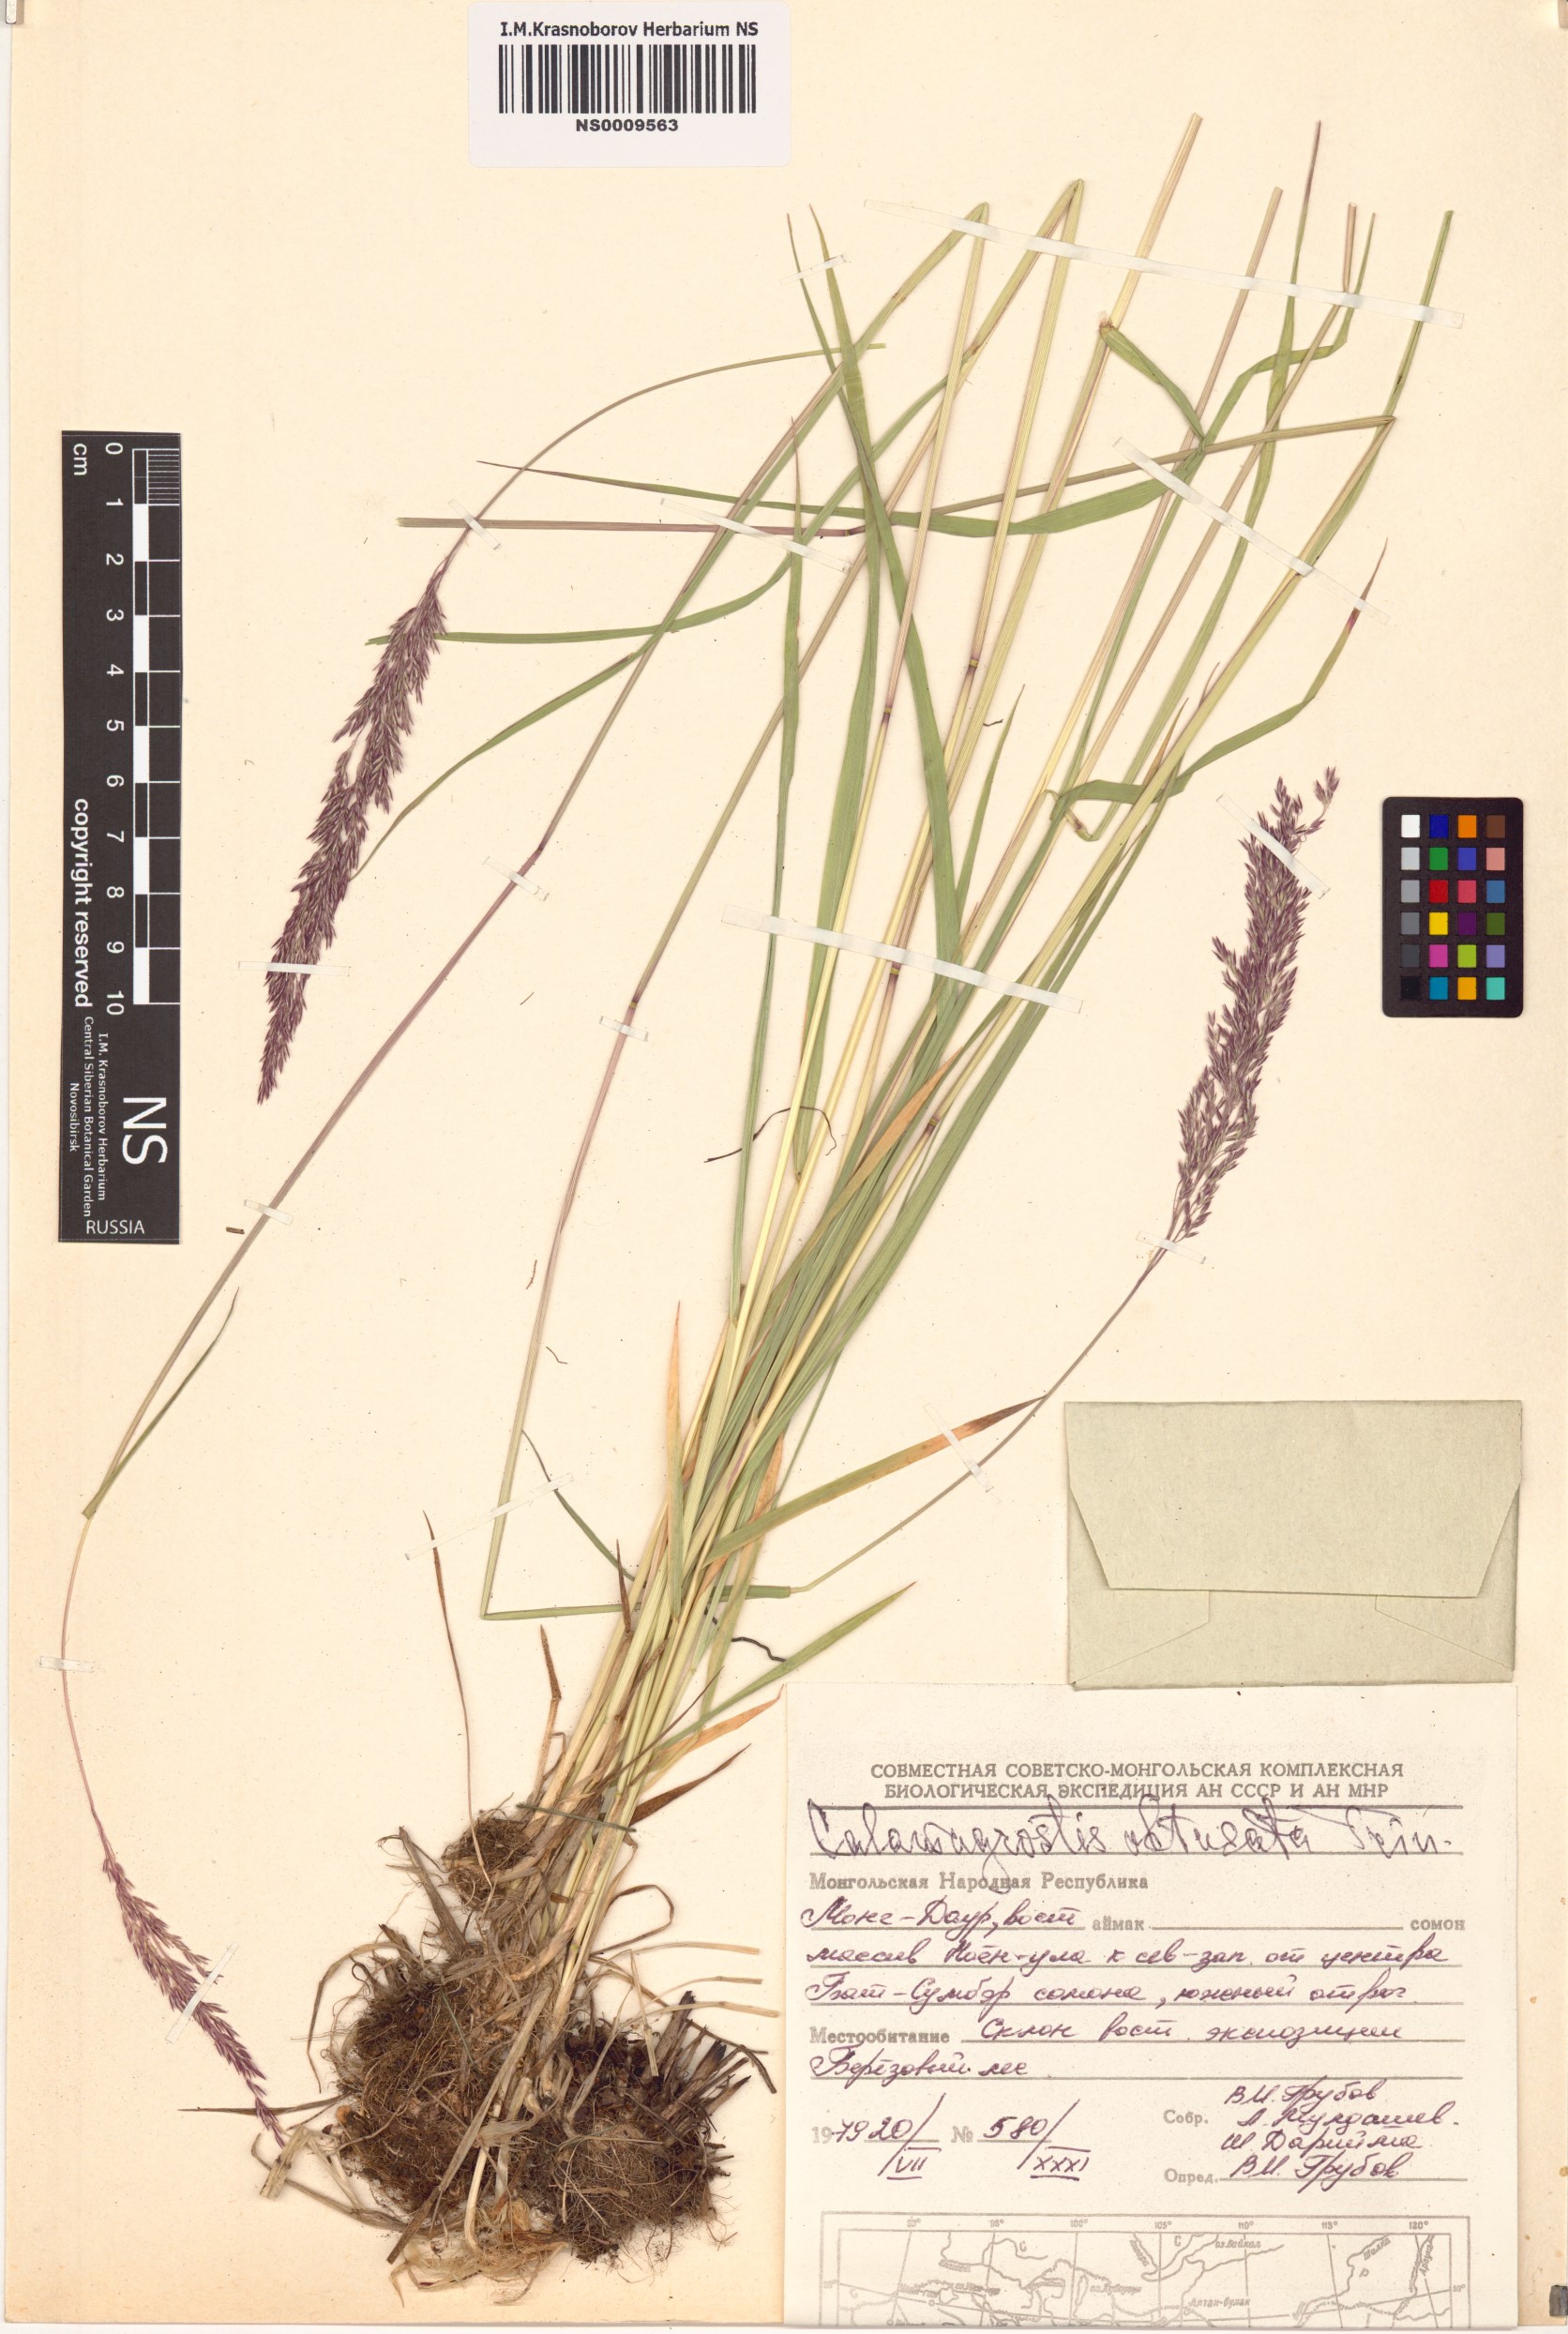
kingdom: Plantae
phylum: Tracheophyta
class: Liliopsida
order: Poales
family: Poaceae
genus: Calamagrostis
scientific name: Calamagrostis obtusata
